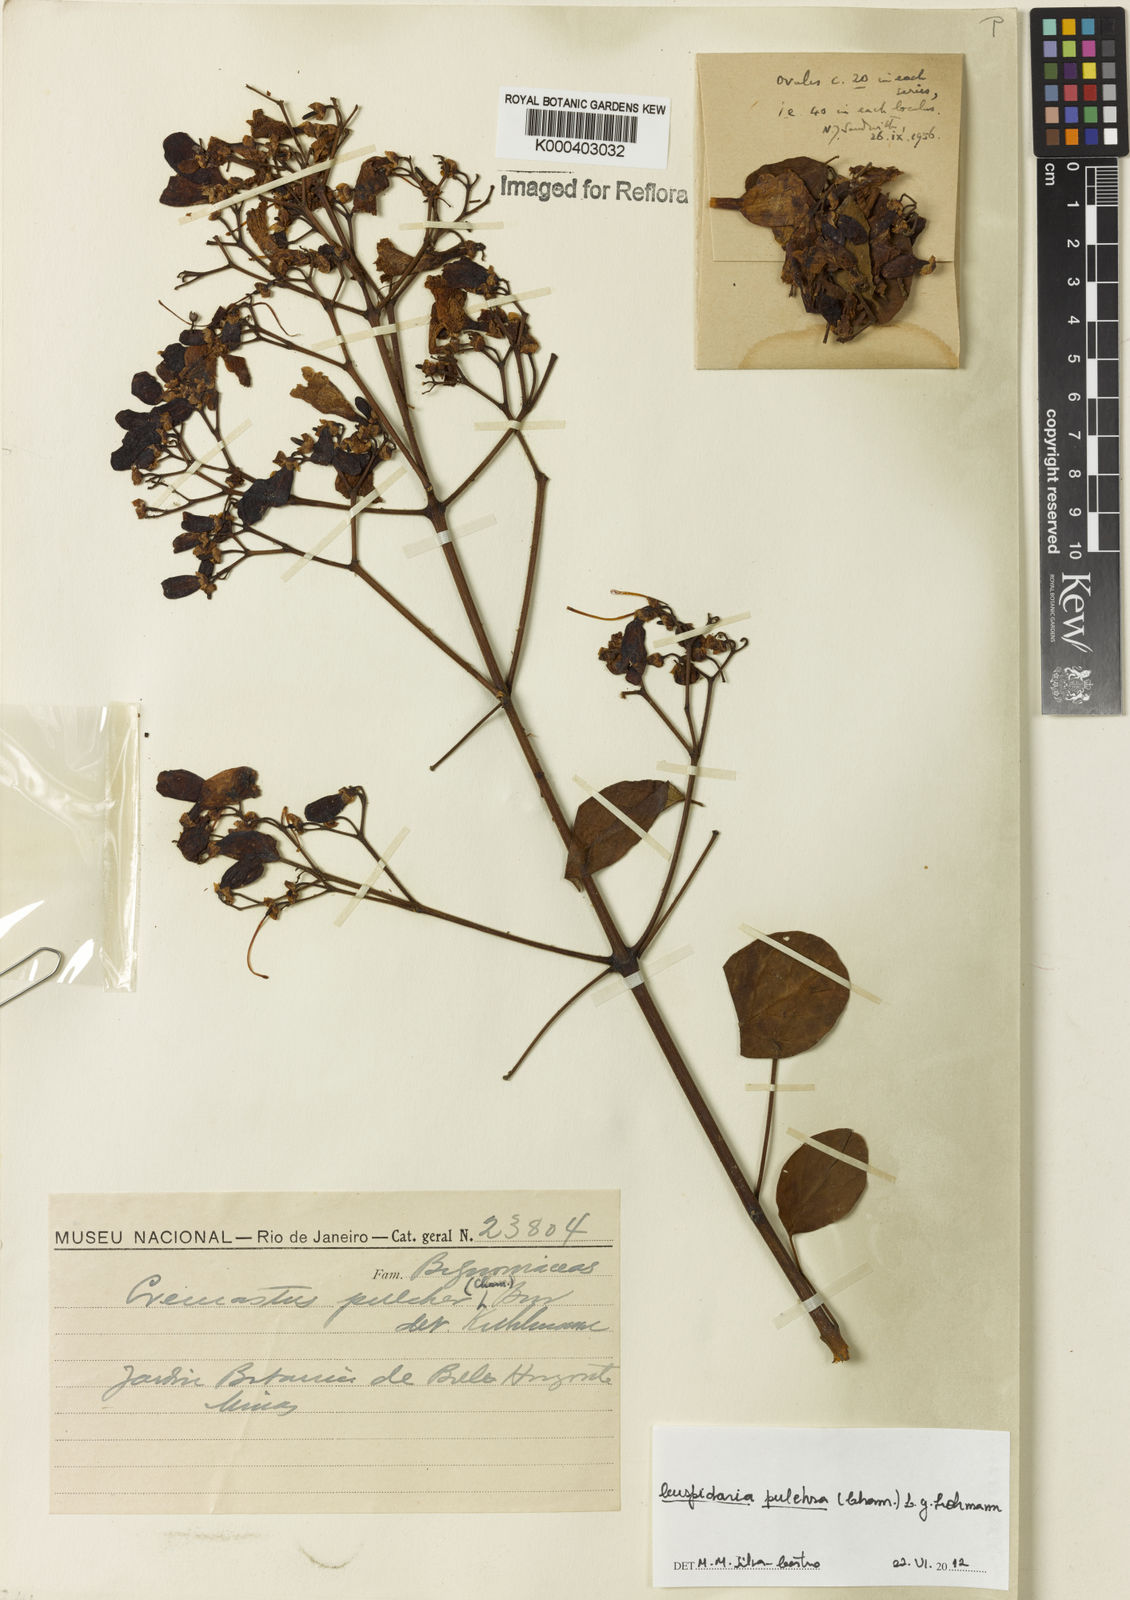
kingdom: Plantae
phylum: Tracheophyta
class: Magnoliopsida
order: Lamiales
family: Bignoniaceae
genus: Cuspidaria
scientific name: Cuspidaria pulchra
